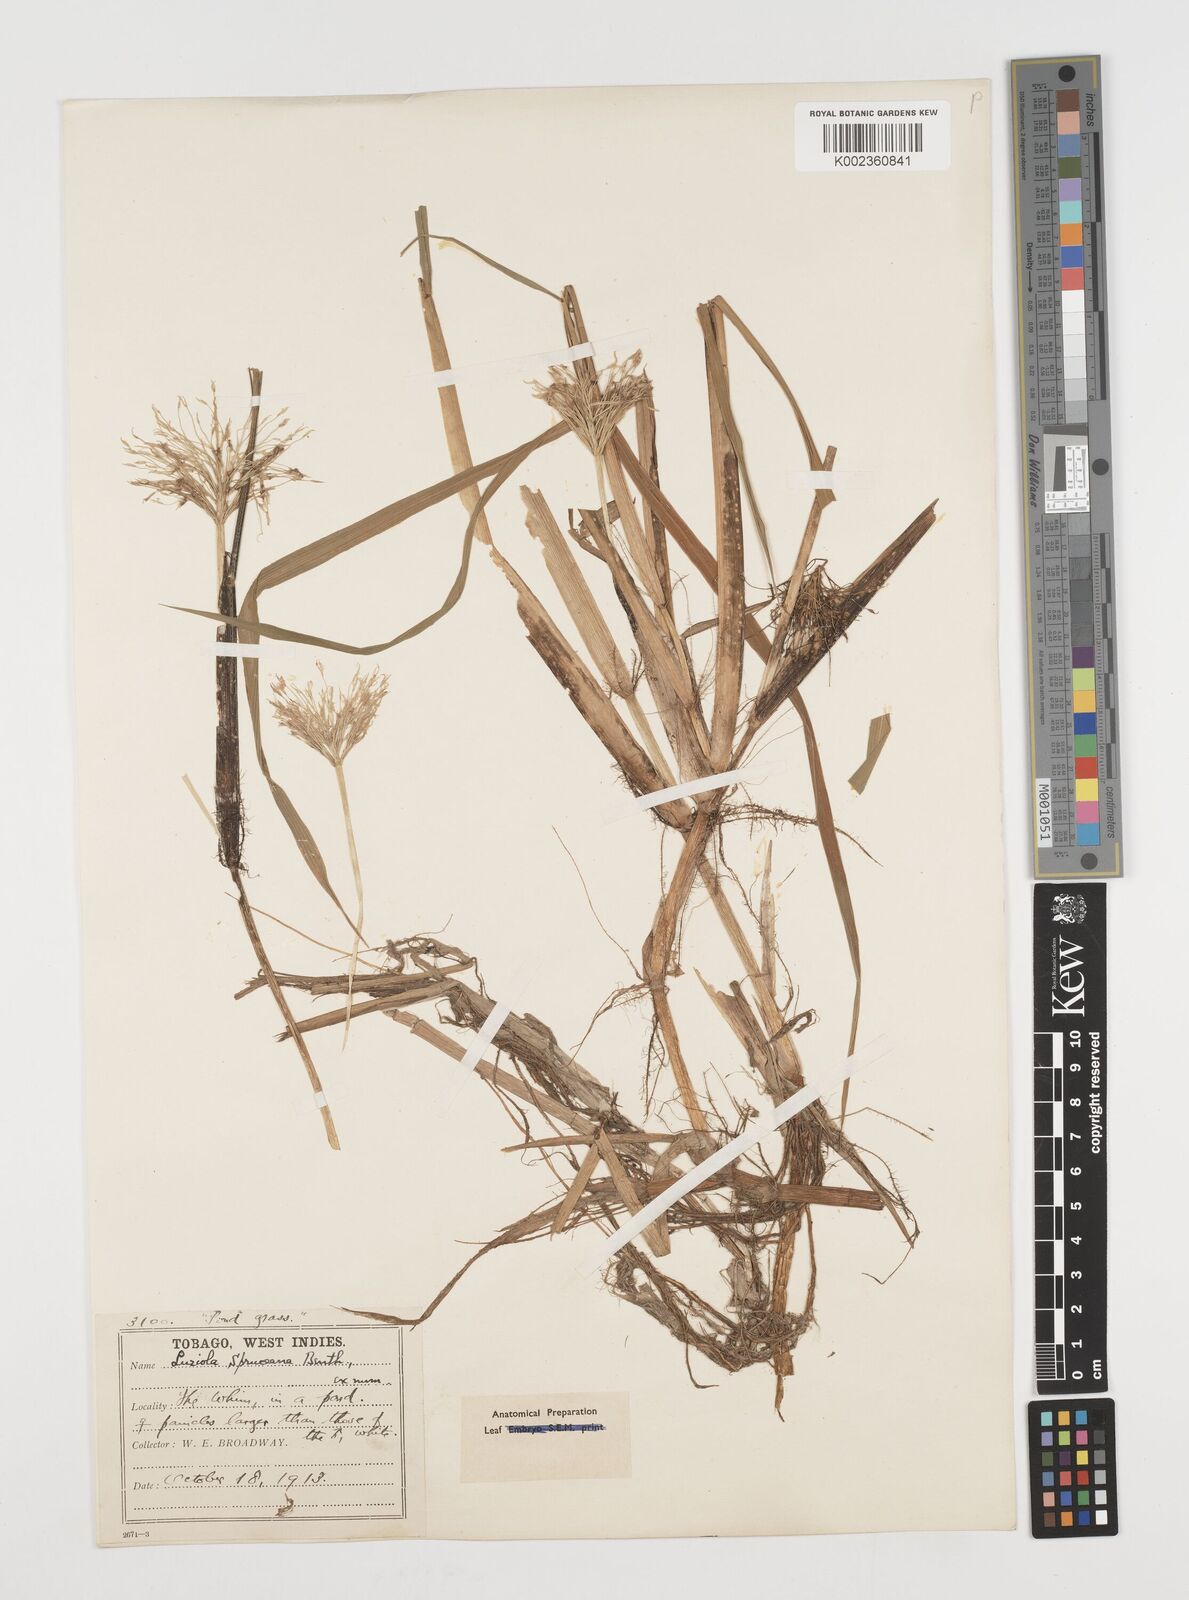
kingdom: Plantae
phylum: Tracheophyta
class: Liliopsida
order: Poales
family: Poaceae
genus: Luziola
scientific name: Luziola subintegra
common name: Large watergrass
